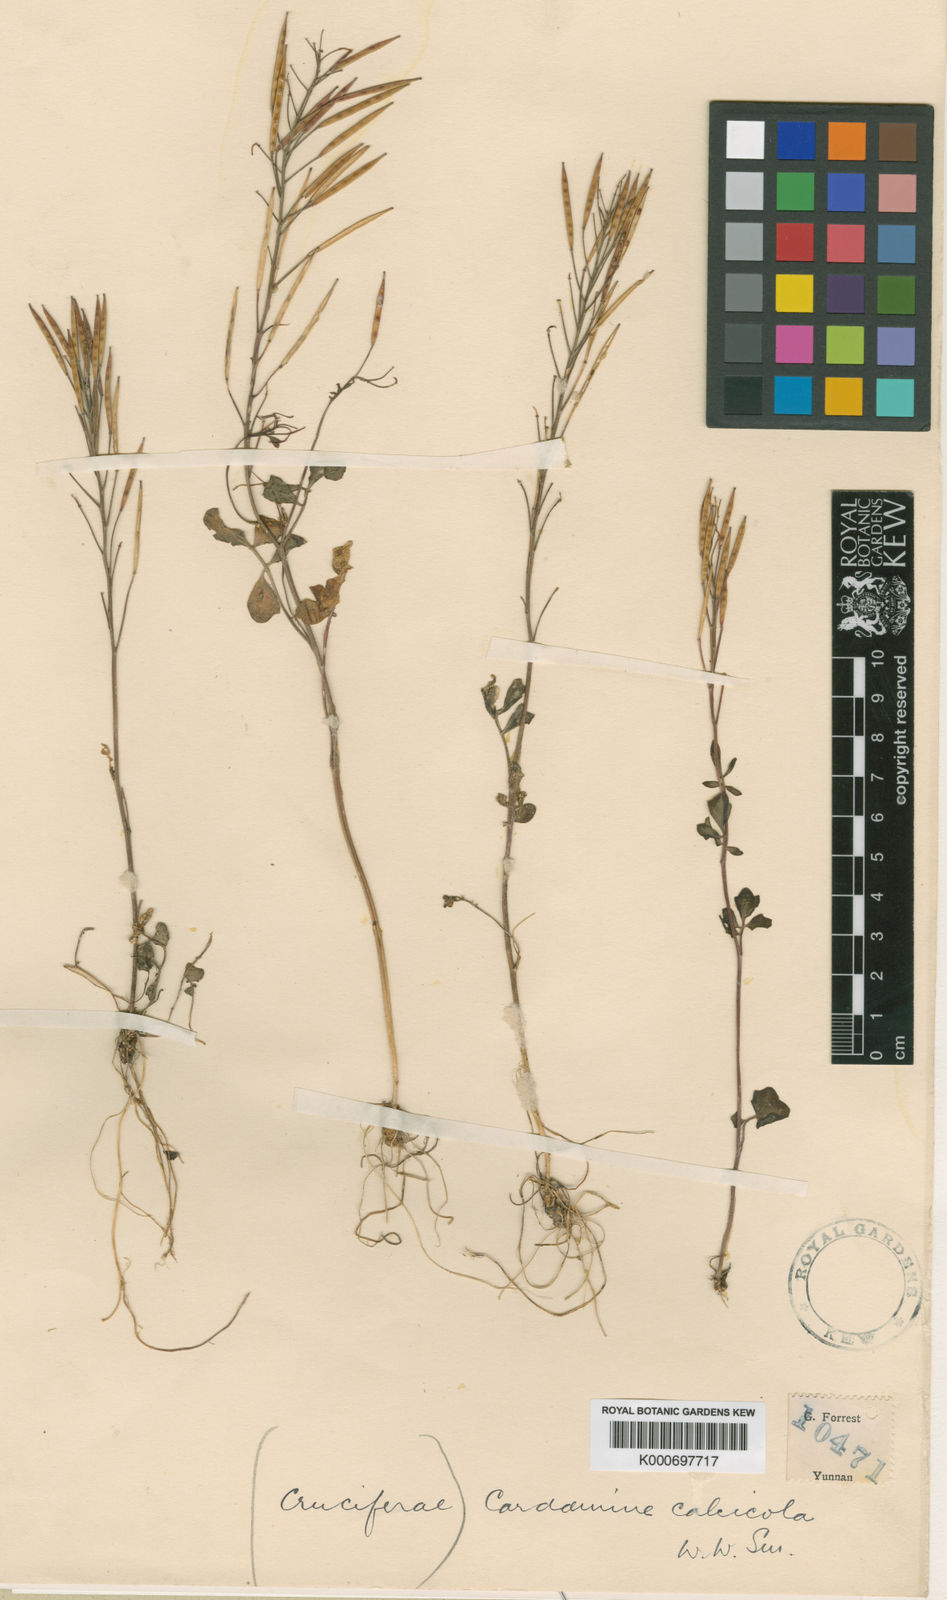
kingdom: Plantae
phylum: Tracheophyta
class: Magnoliopsida
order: Brassicales
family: Brassicaceae
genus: Cardamine
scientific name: Cardamine calcicola
